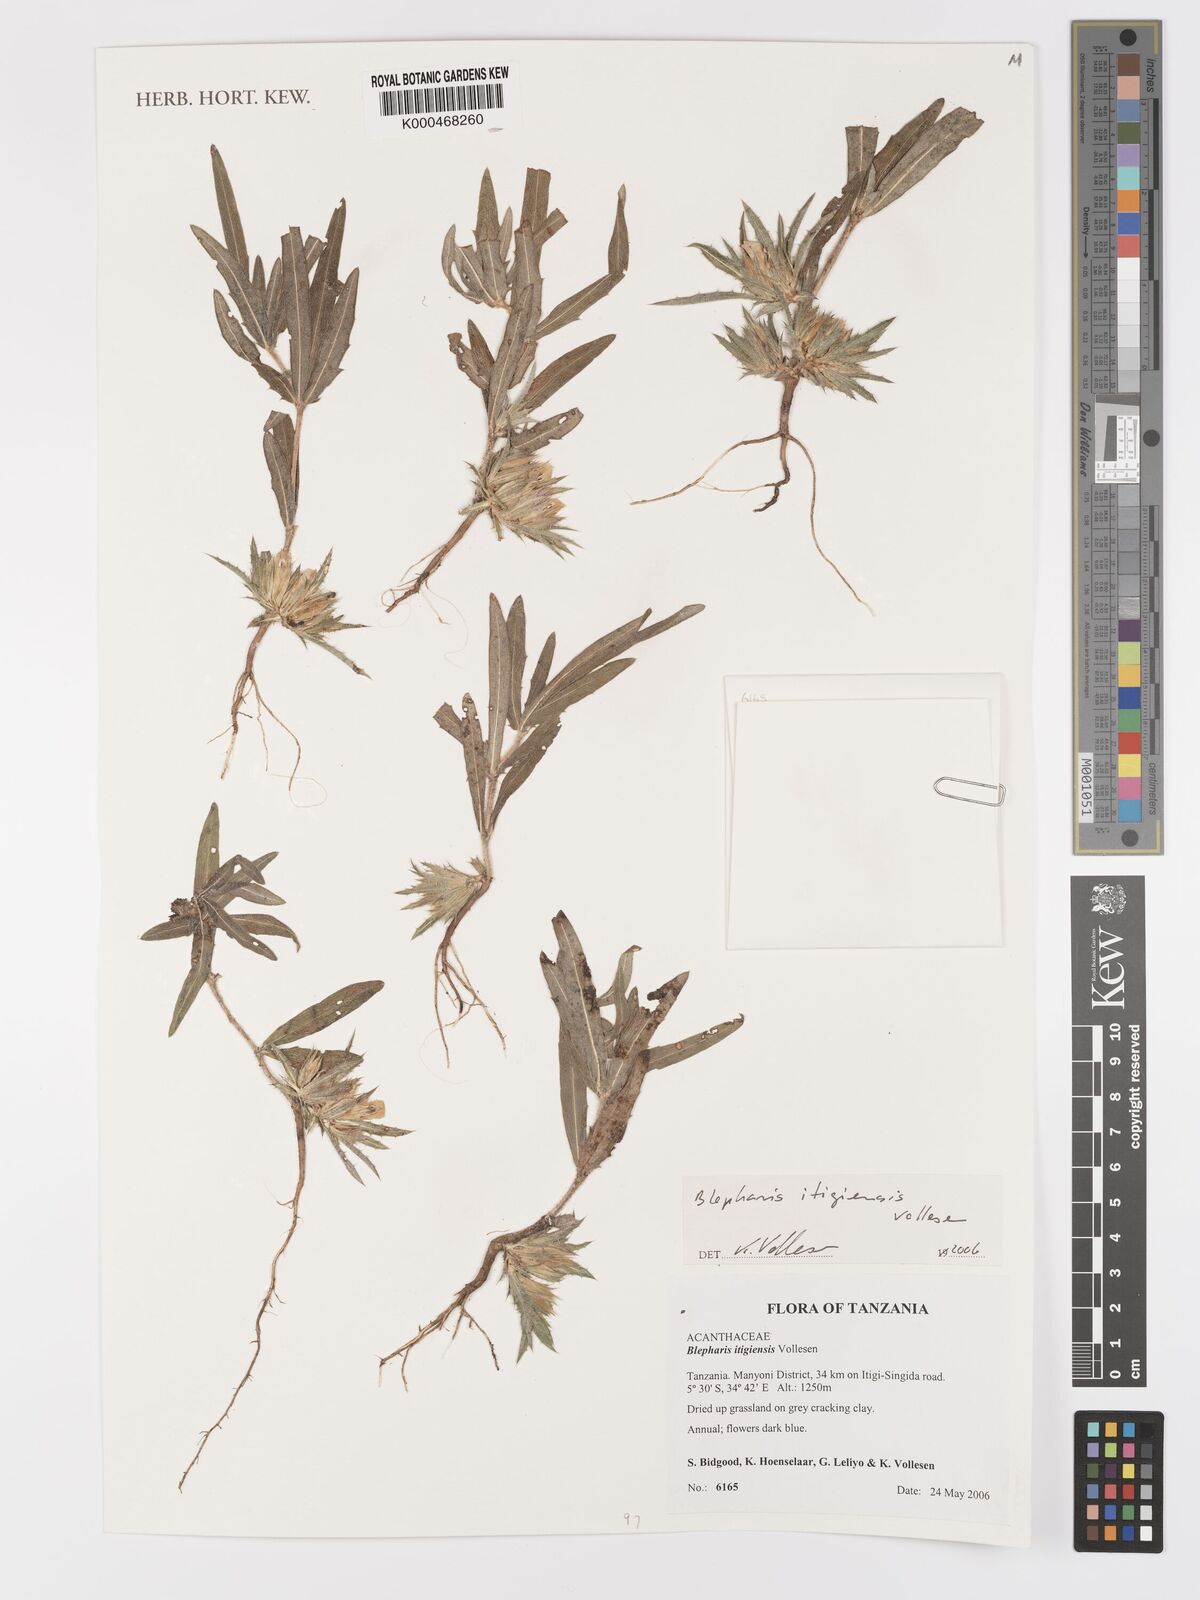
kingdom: Plantae
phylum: Tracheophyta
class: Magnoliopsida
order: Lamiales
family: Acanthaceae
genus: Blepharis
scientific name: Blepharis itigiensis
